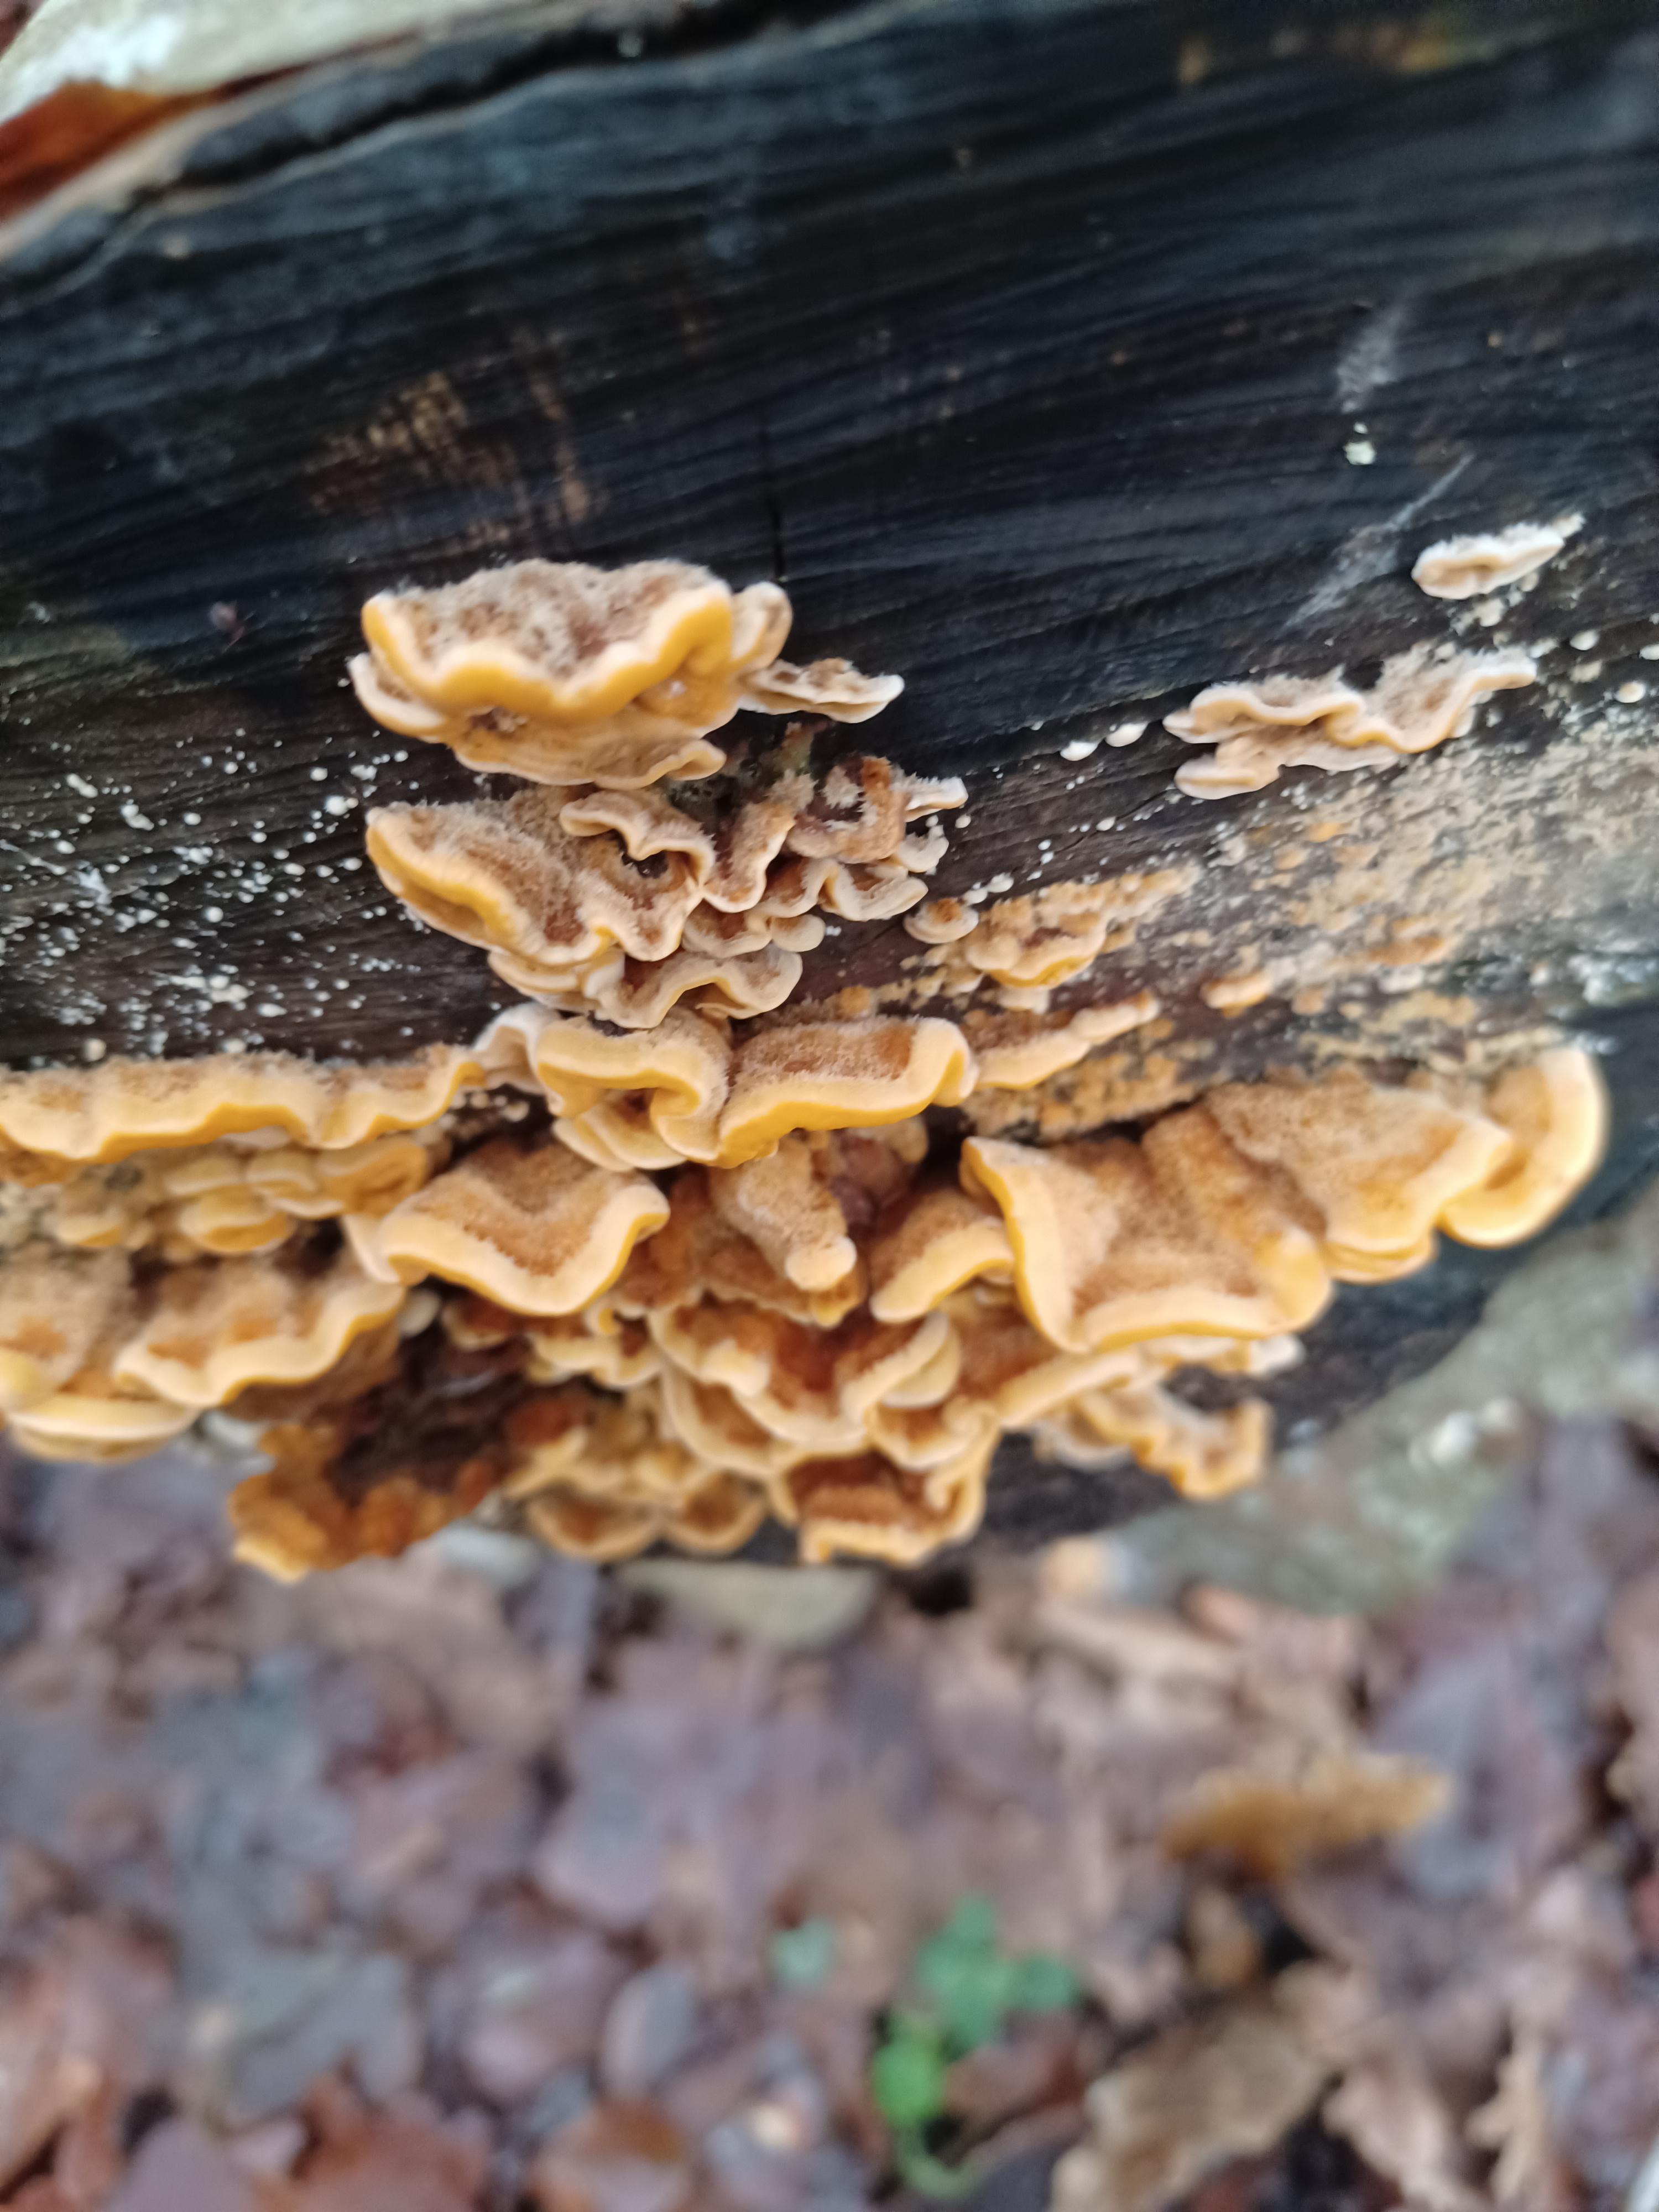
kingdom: Fungi
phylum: Basidiomycota
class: Agaricomycetes
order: Russulales
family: Stereaceae
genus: Stereum
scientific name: Stereum hirsutum
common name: håret lædersvamp
